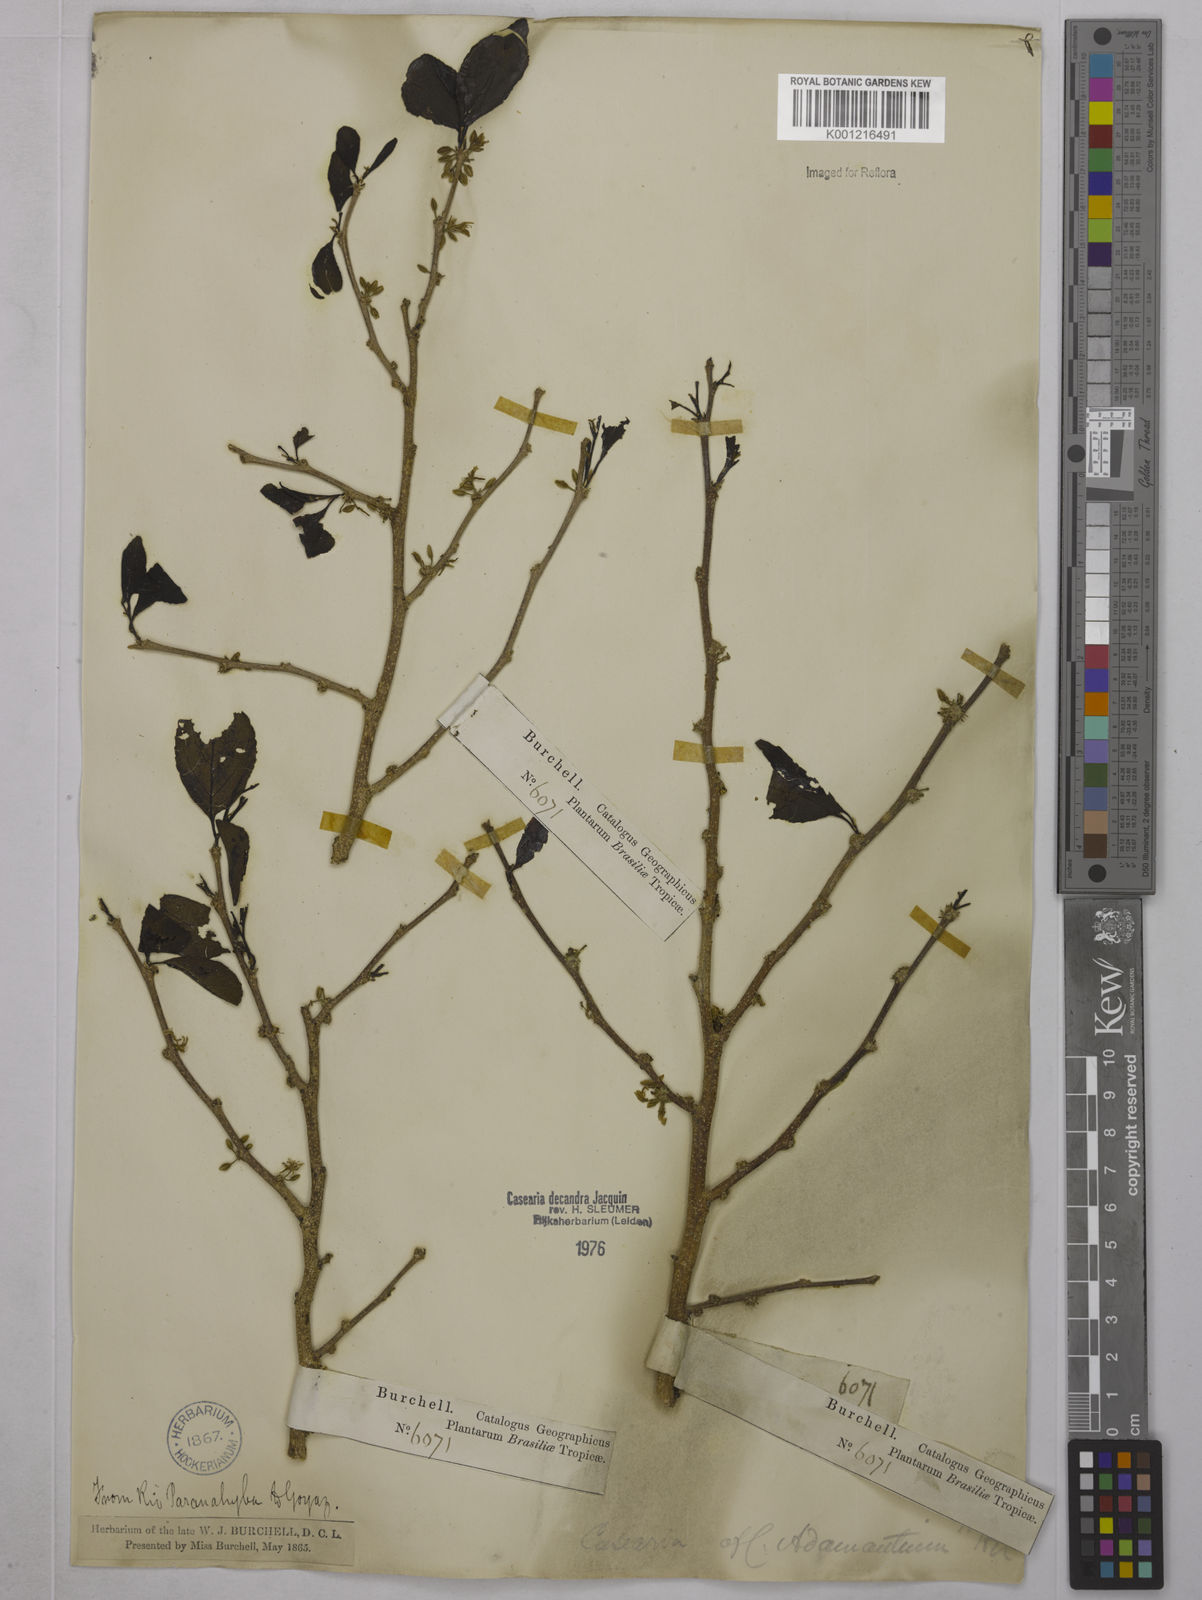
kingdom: Plantae
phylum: Tracheophyta
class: Magnoliopsida
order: Malpighiales
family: Salicaceae
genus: Casearia
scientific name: Casearia decandra
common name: Crack open
